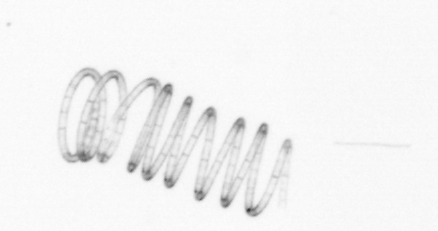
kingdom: Chromista
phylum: Ochrophyta
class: Bacillariophyceae
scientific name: Bacillariophyceae
